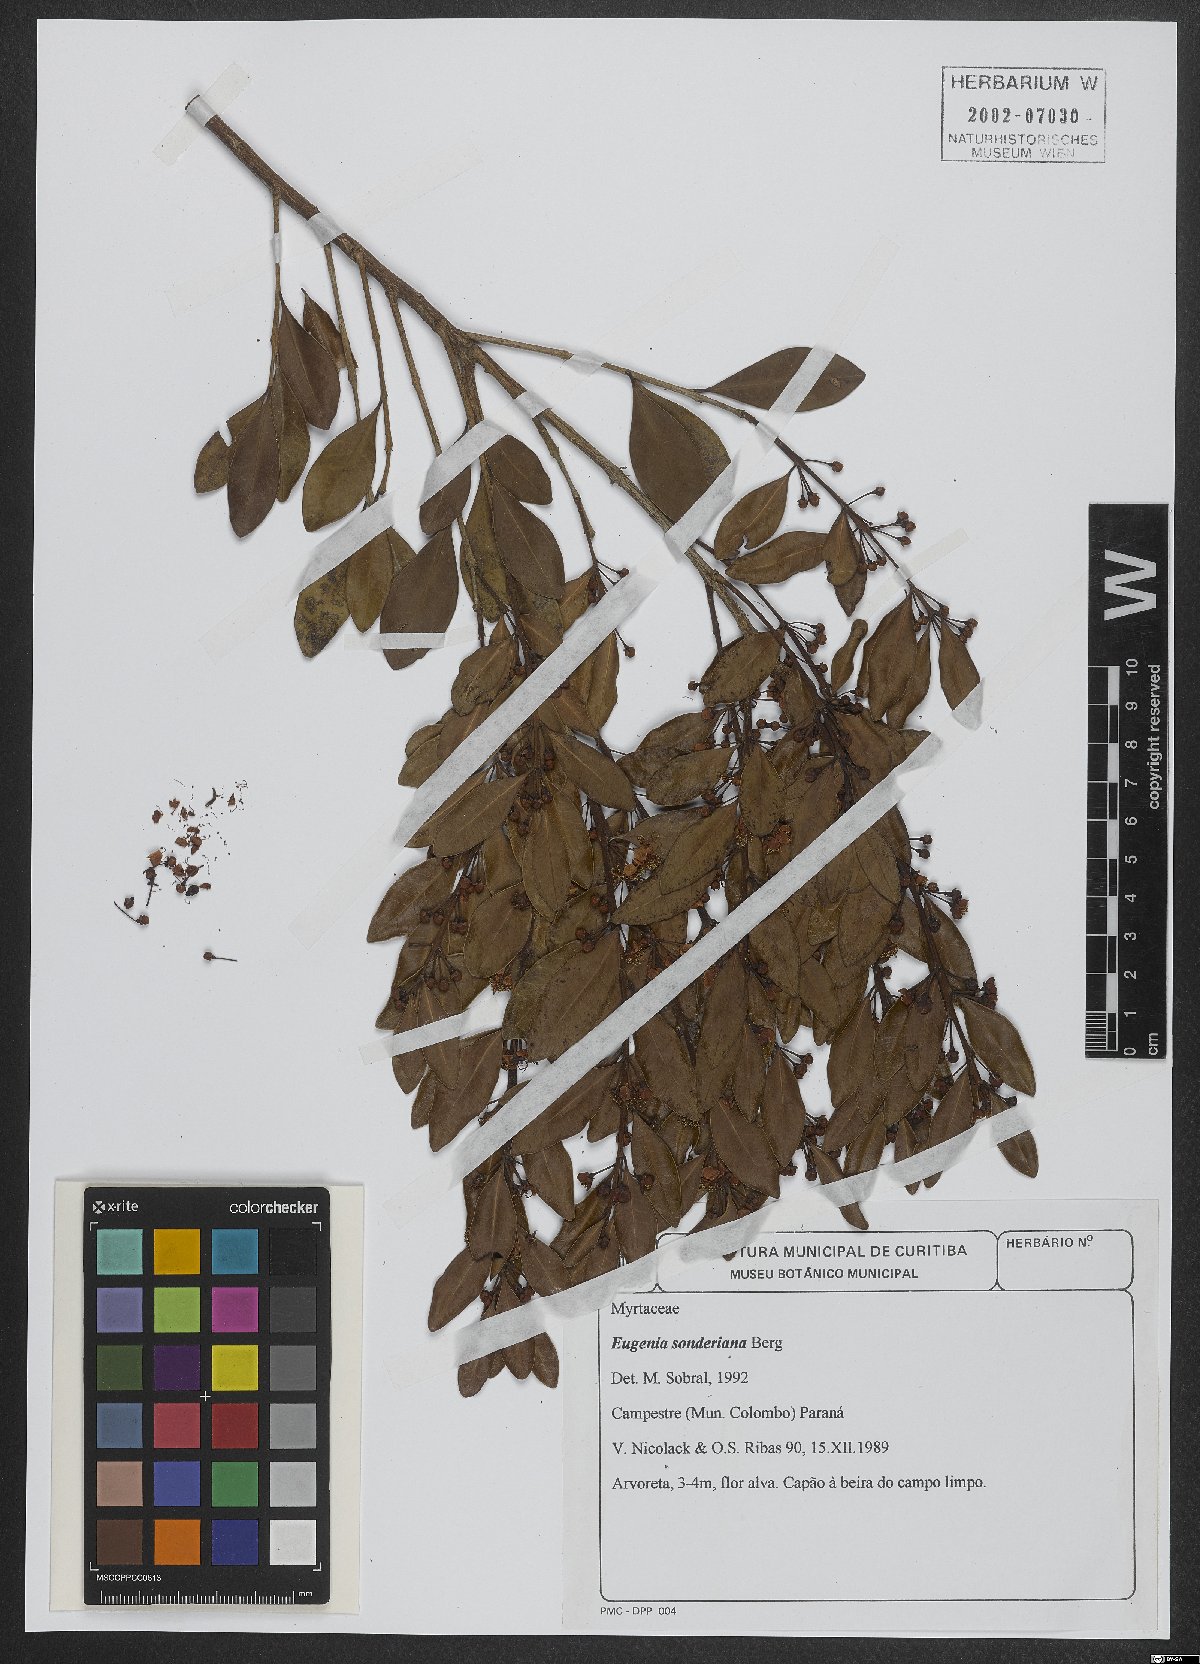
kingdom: Plantae
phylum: Tracheophyta
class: Magnoliopsida
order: Myrtales
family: Myrtaceae
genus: Eugenia
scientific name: Eugenia sonderiana
